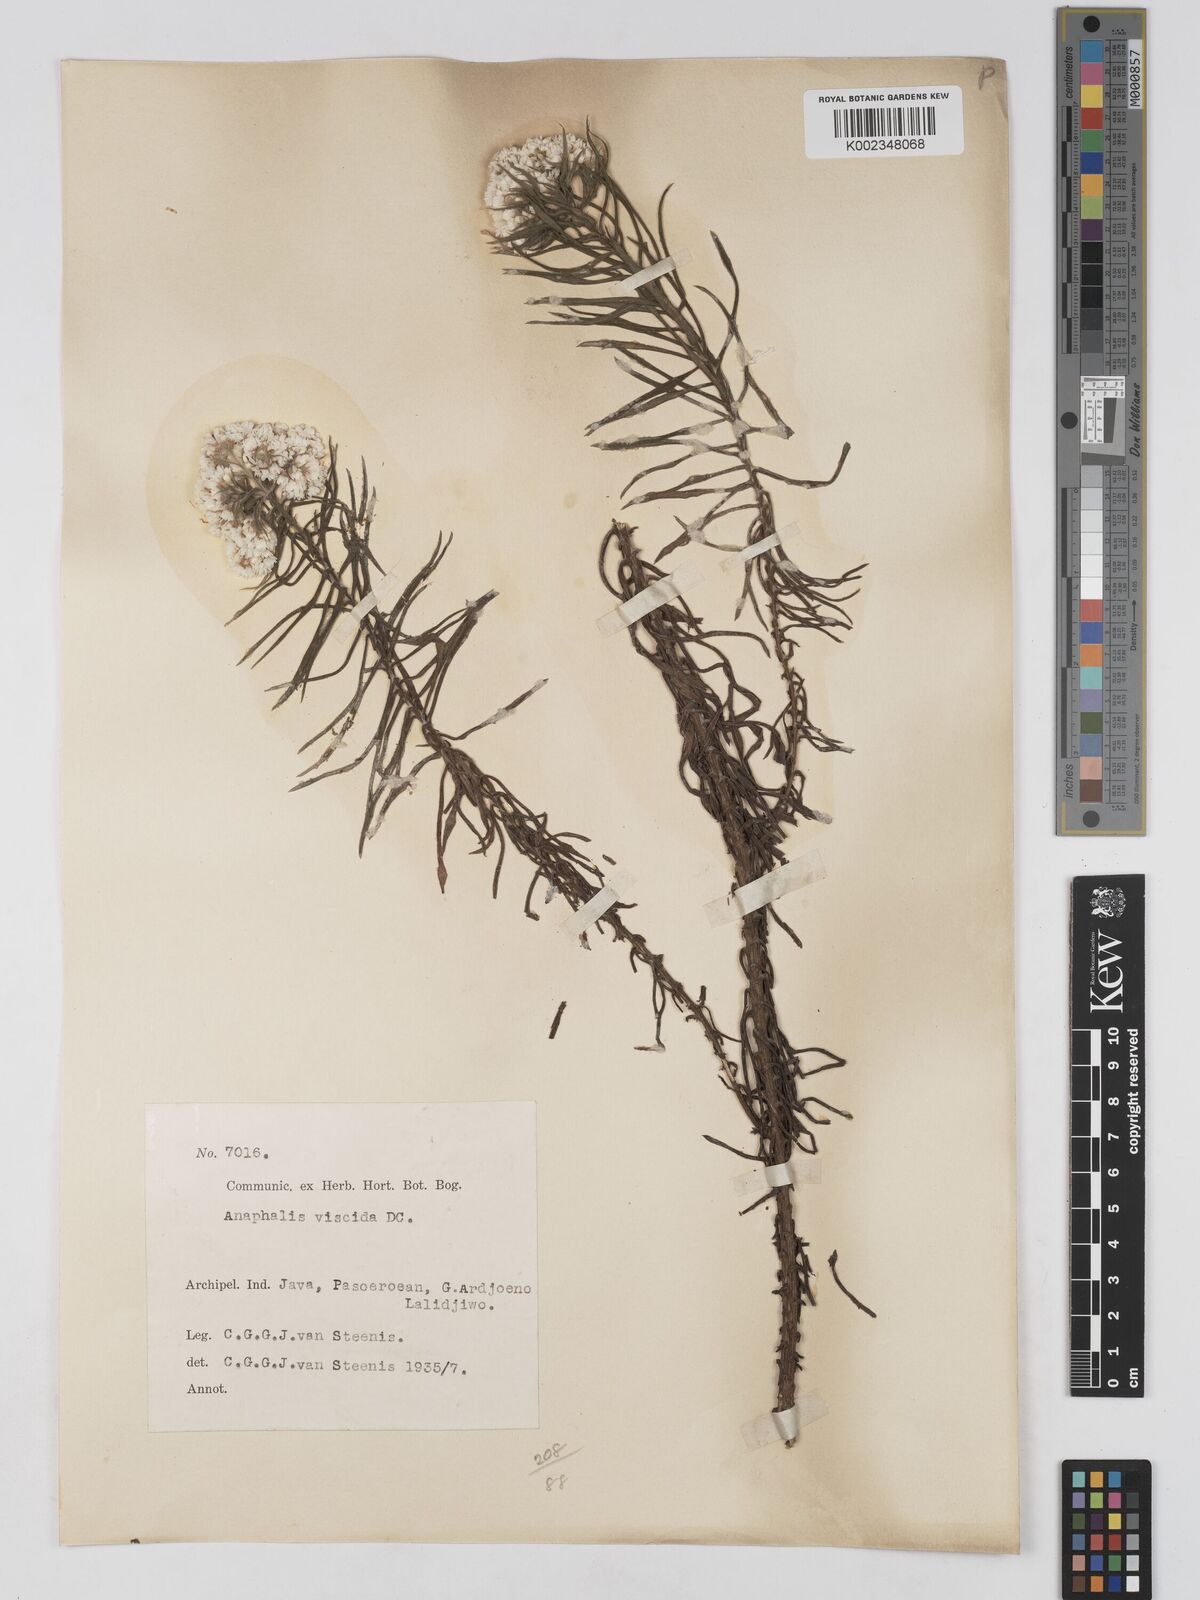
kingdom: Plantae
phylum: Tracheophyta
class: Magnoliopsida
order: Asterales
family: Asteraceae
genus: Anaphalis
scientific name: Anaphalis viscida
